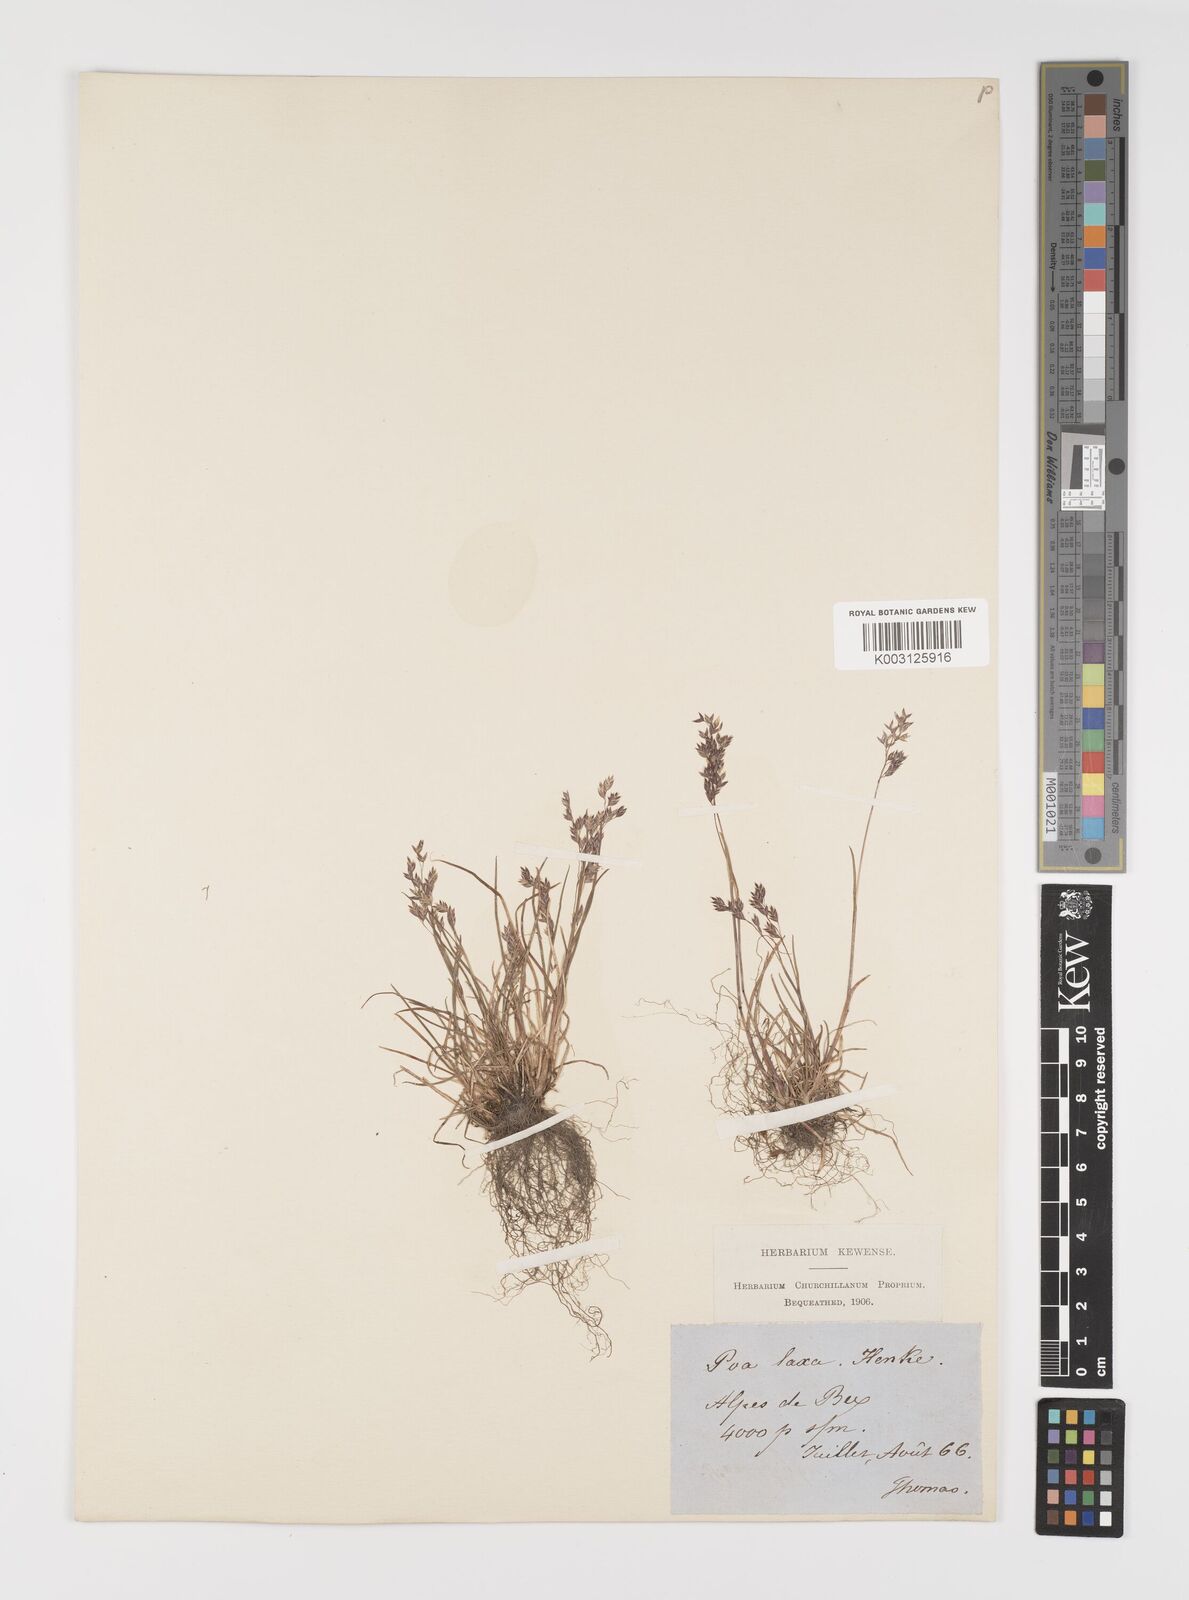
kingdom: Plantae
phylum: Tracheophyta
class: Liliopsida
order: Poales
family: Poaceae
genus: Poa
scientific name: Poa laxa
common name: Lax bluegrass
